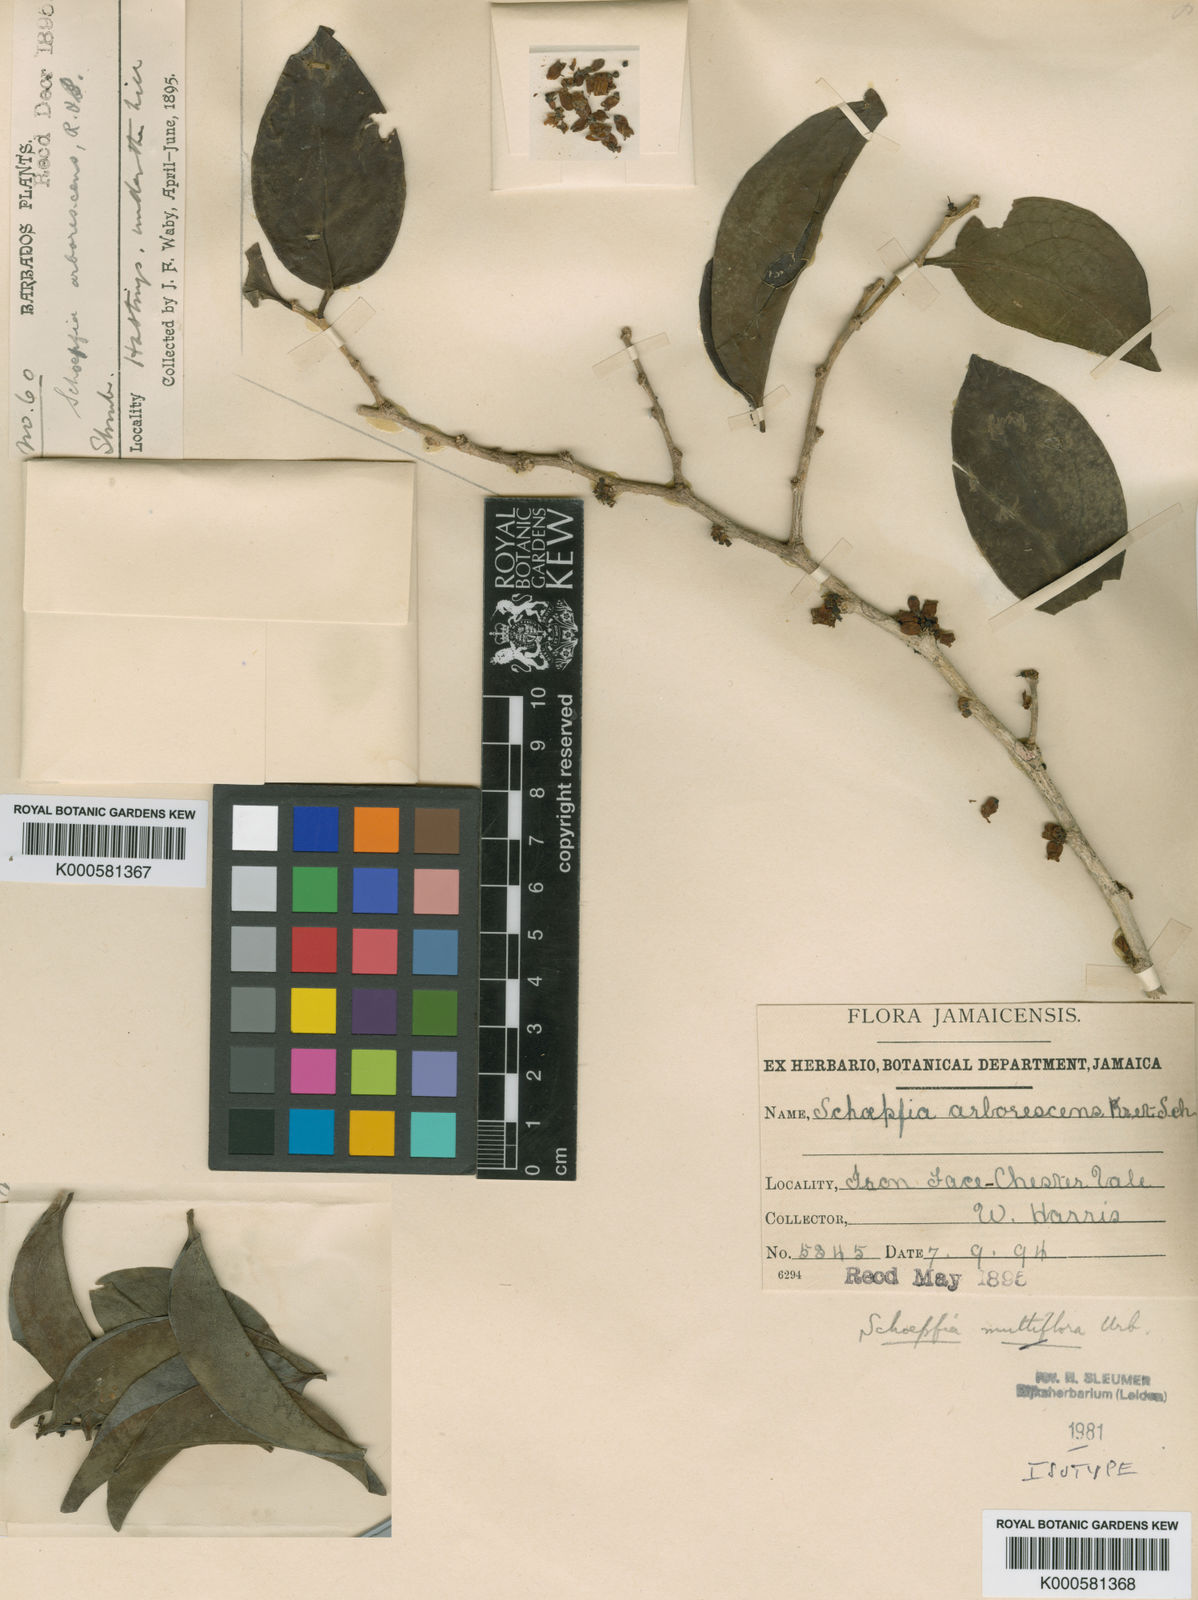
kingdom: Plantae
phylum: Tracheophyta
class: Magnoliopsida
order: Santalales
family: Schoepfiaceae
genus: Schoepfia
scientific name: Schoepfia multiflora
